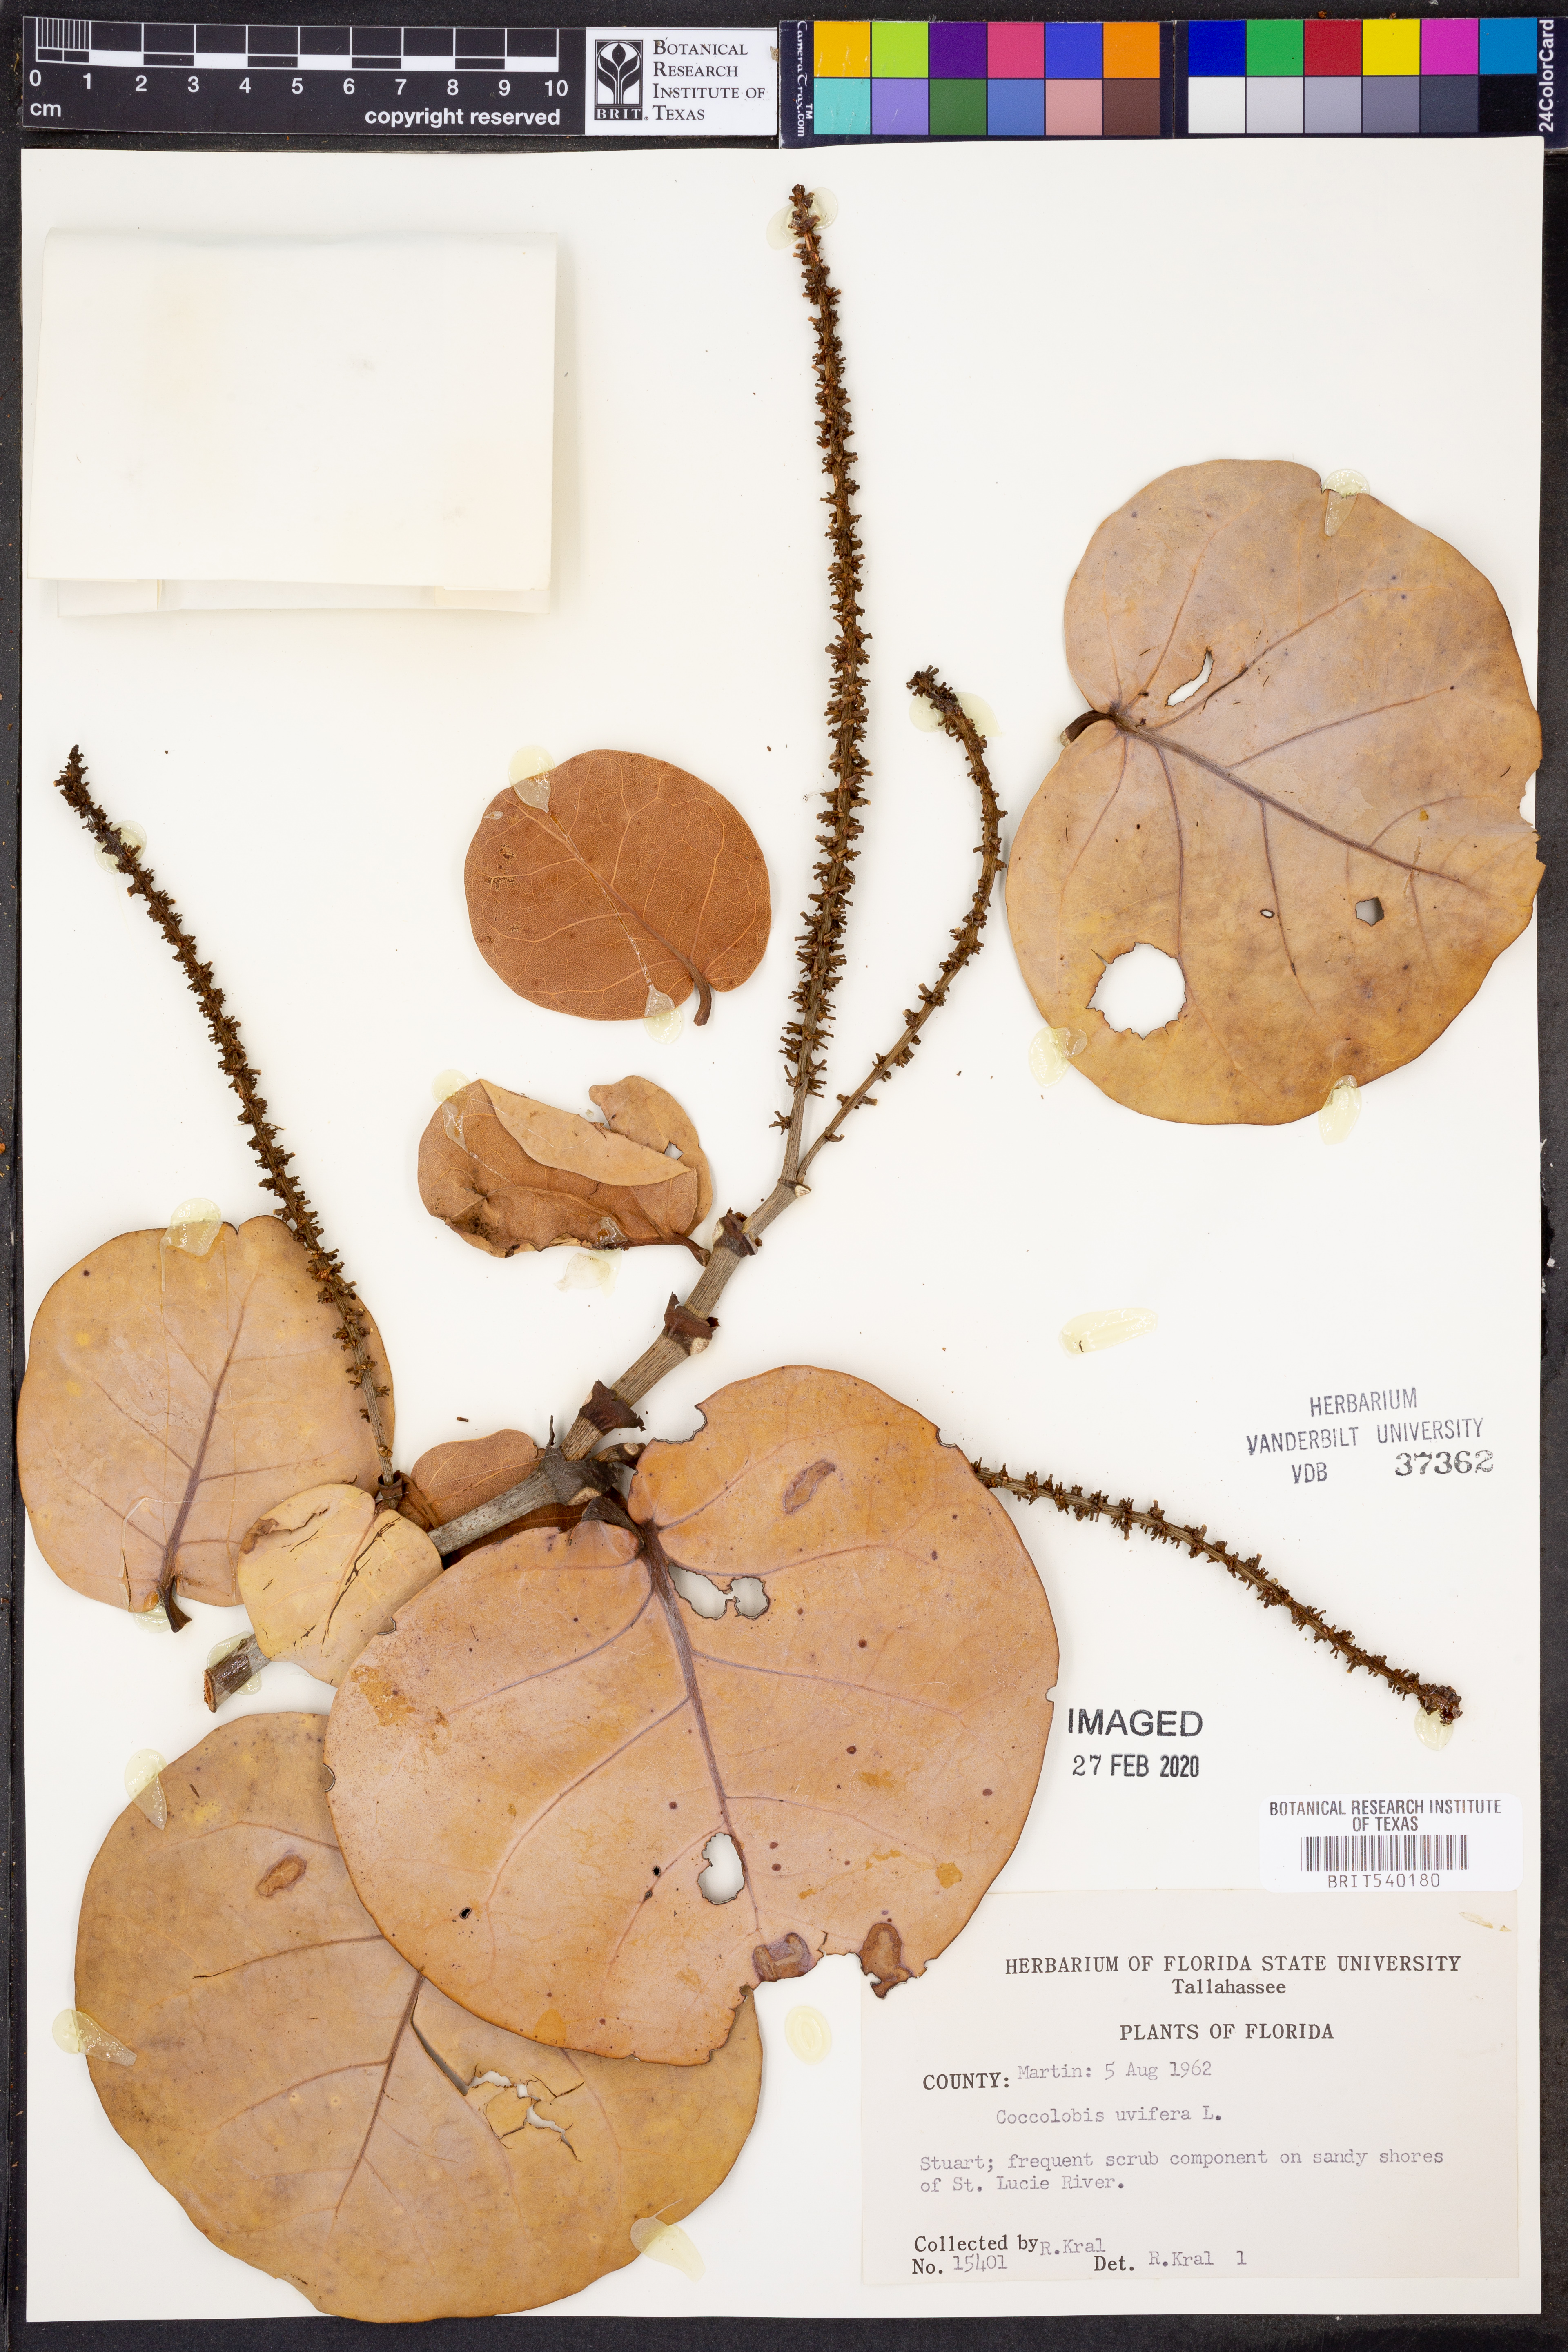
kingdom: Plantae
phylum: Tracheophyta
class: Magnoliopsida
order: Caryophyllales
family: Polygonaceae
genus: Coccoloba
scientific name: Coccoloba uvifera
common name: Seagrape
